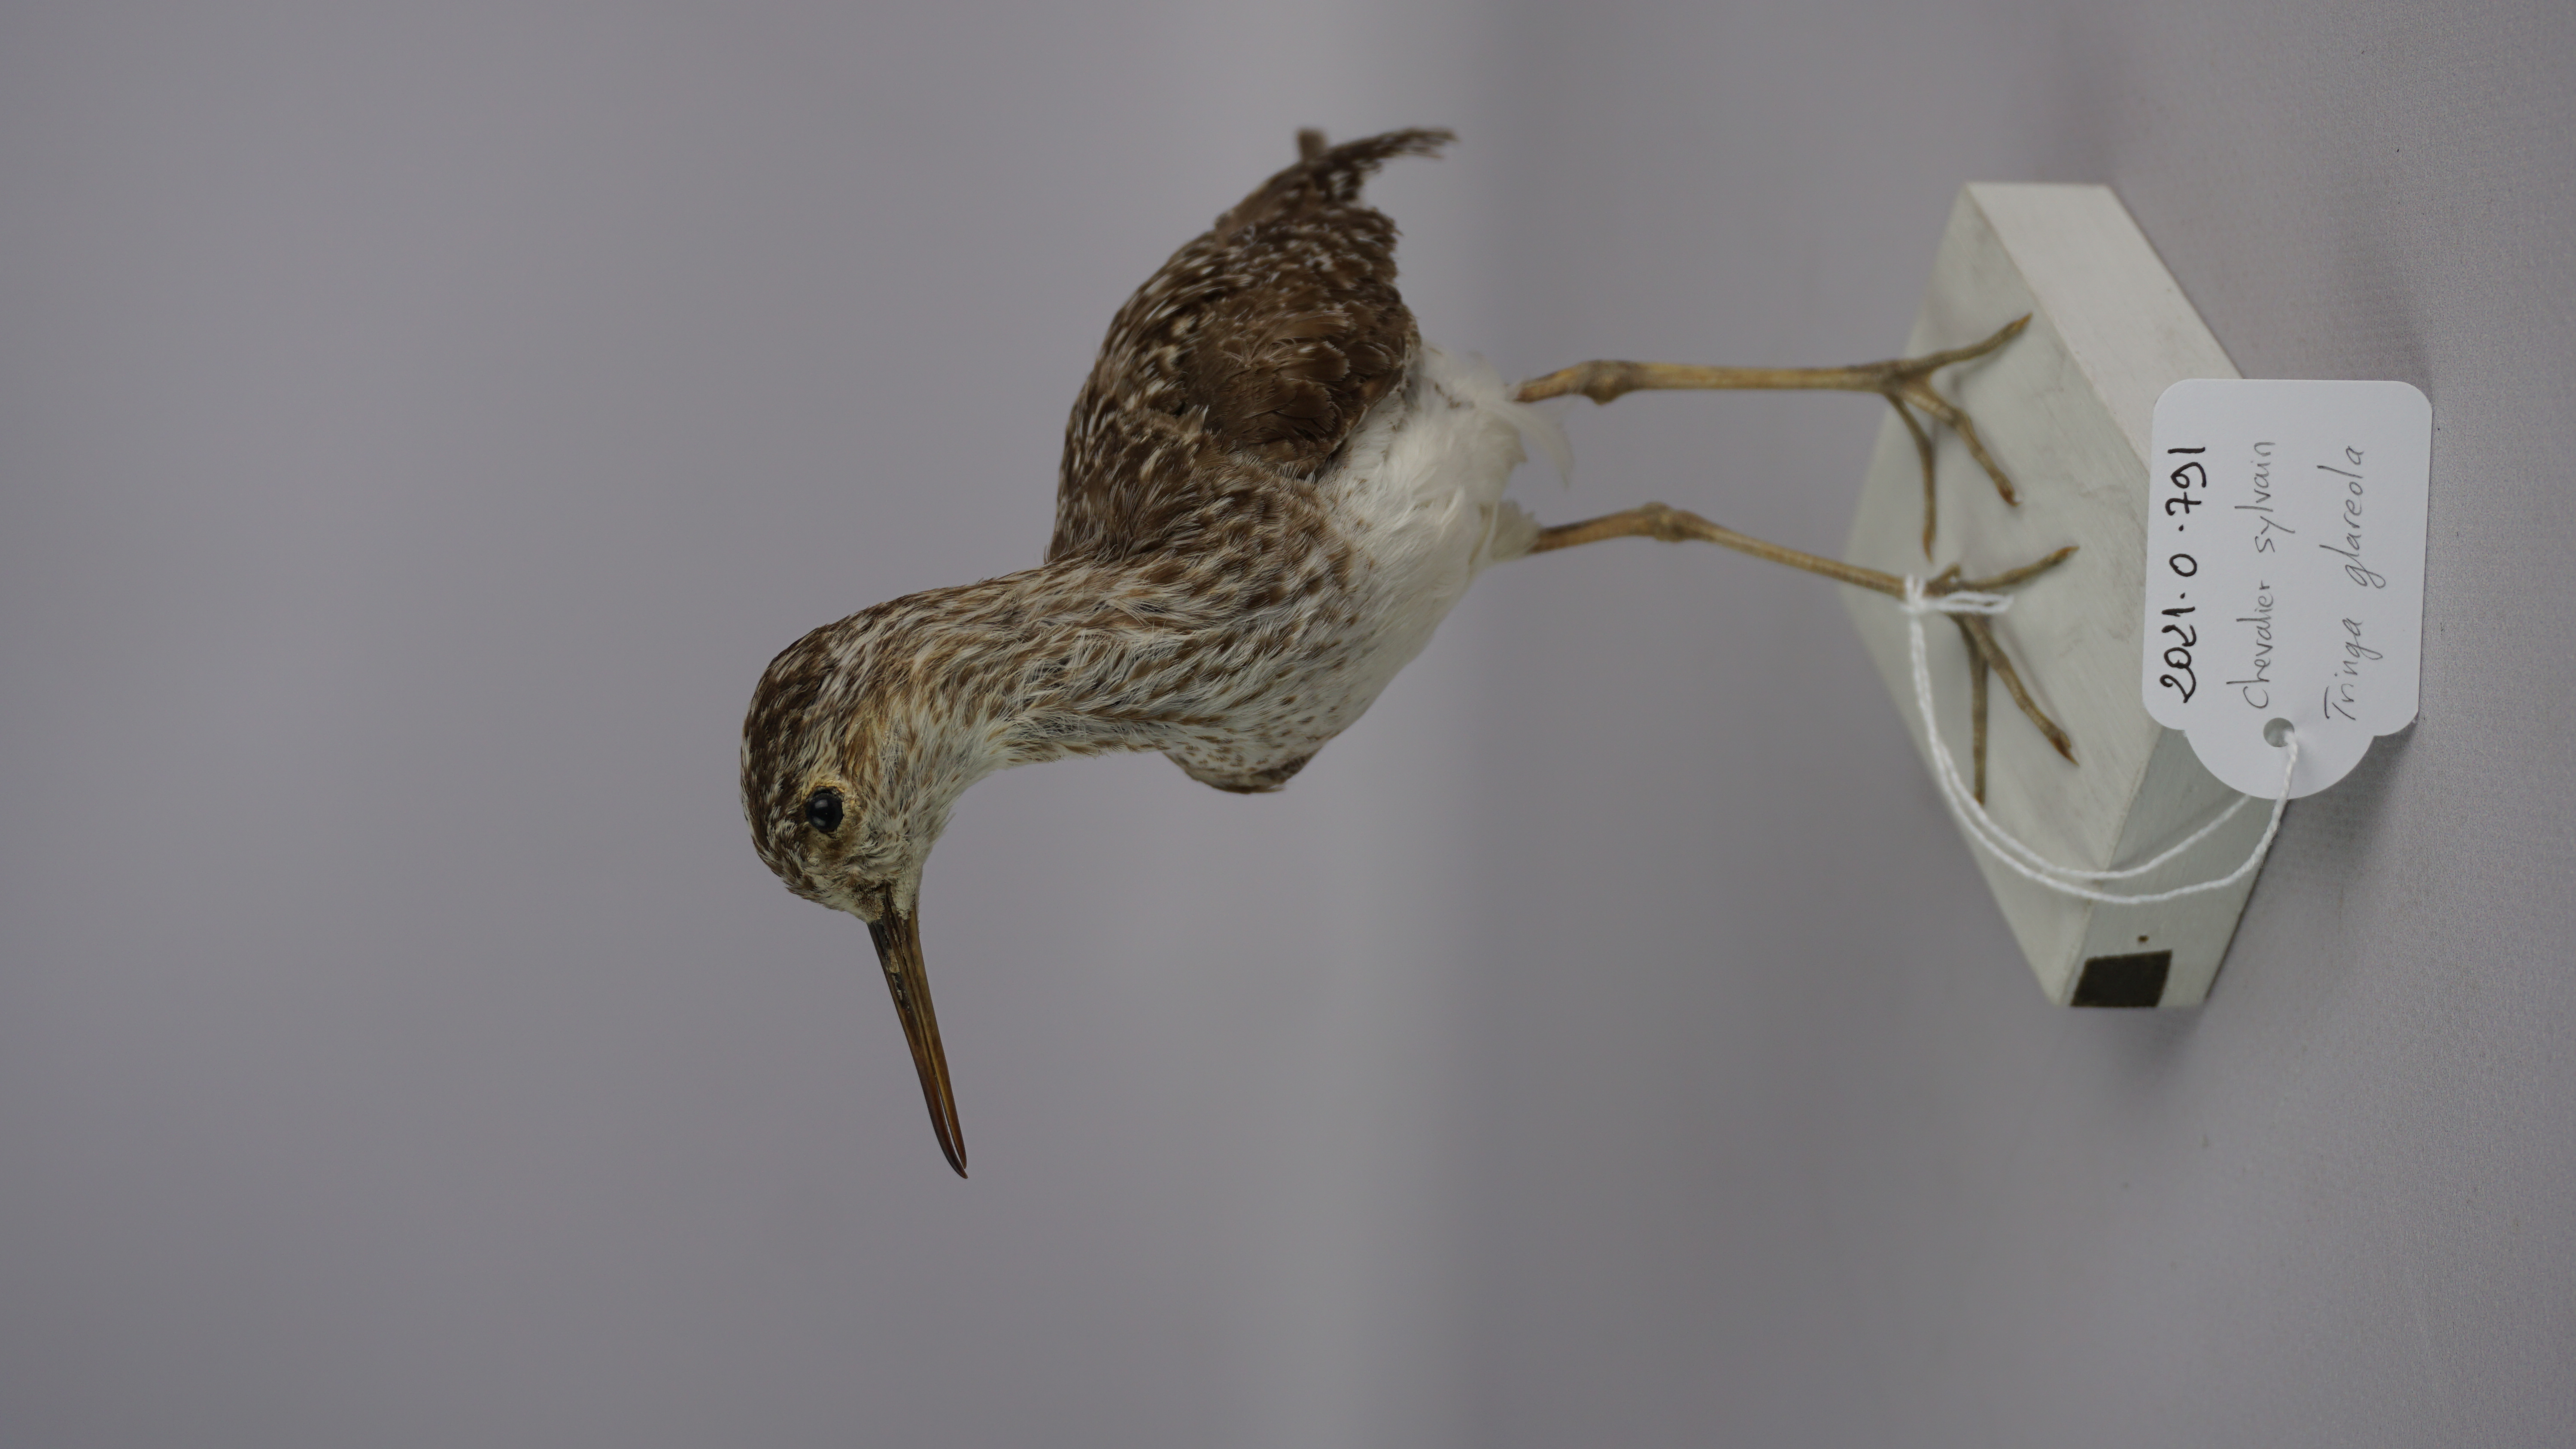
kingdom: Animalia
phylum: Chordata
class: Aves
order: Charadriiformes
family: Scolopacidae
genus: Tringa
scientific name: Tringa glareola
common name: Wood sandpiper
